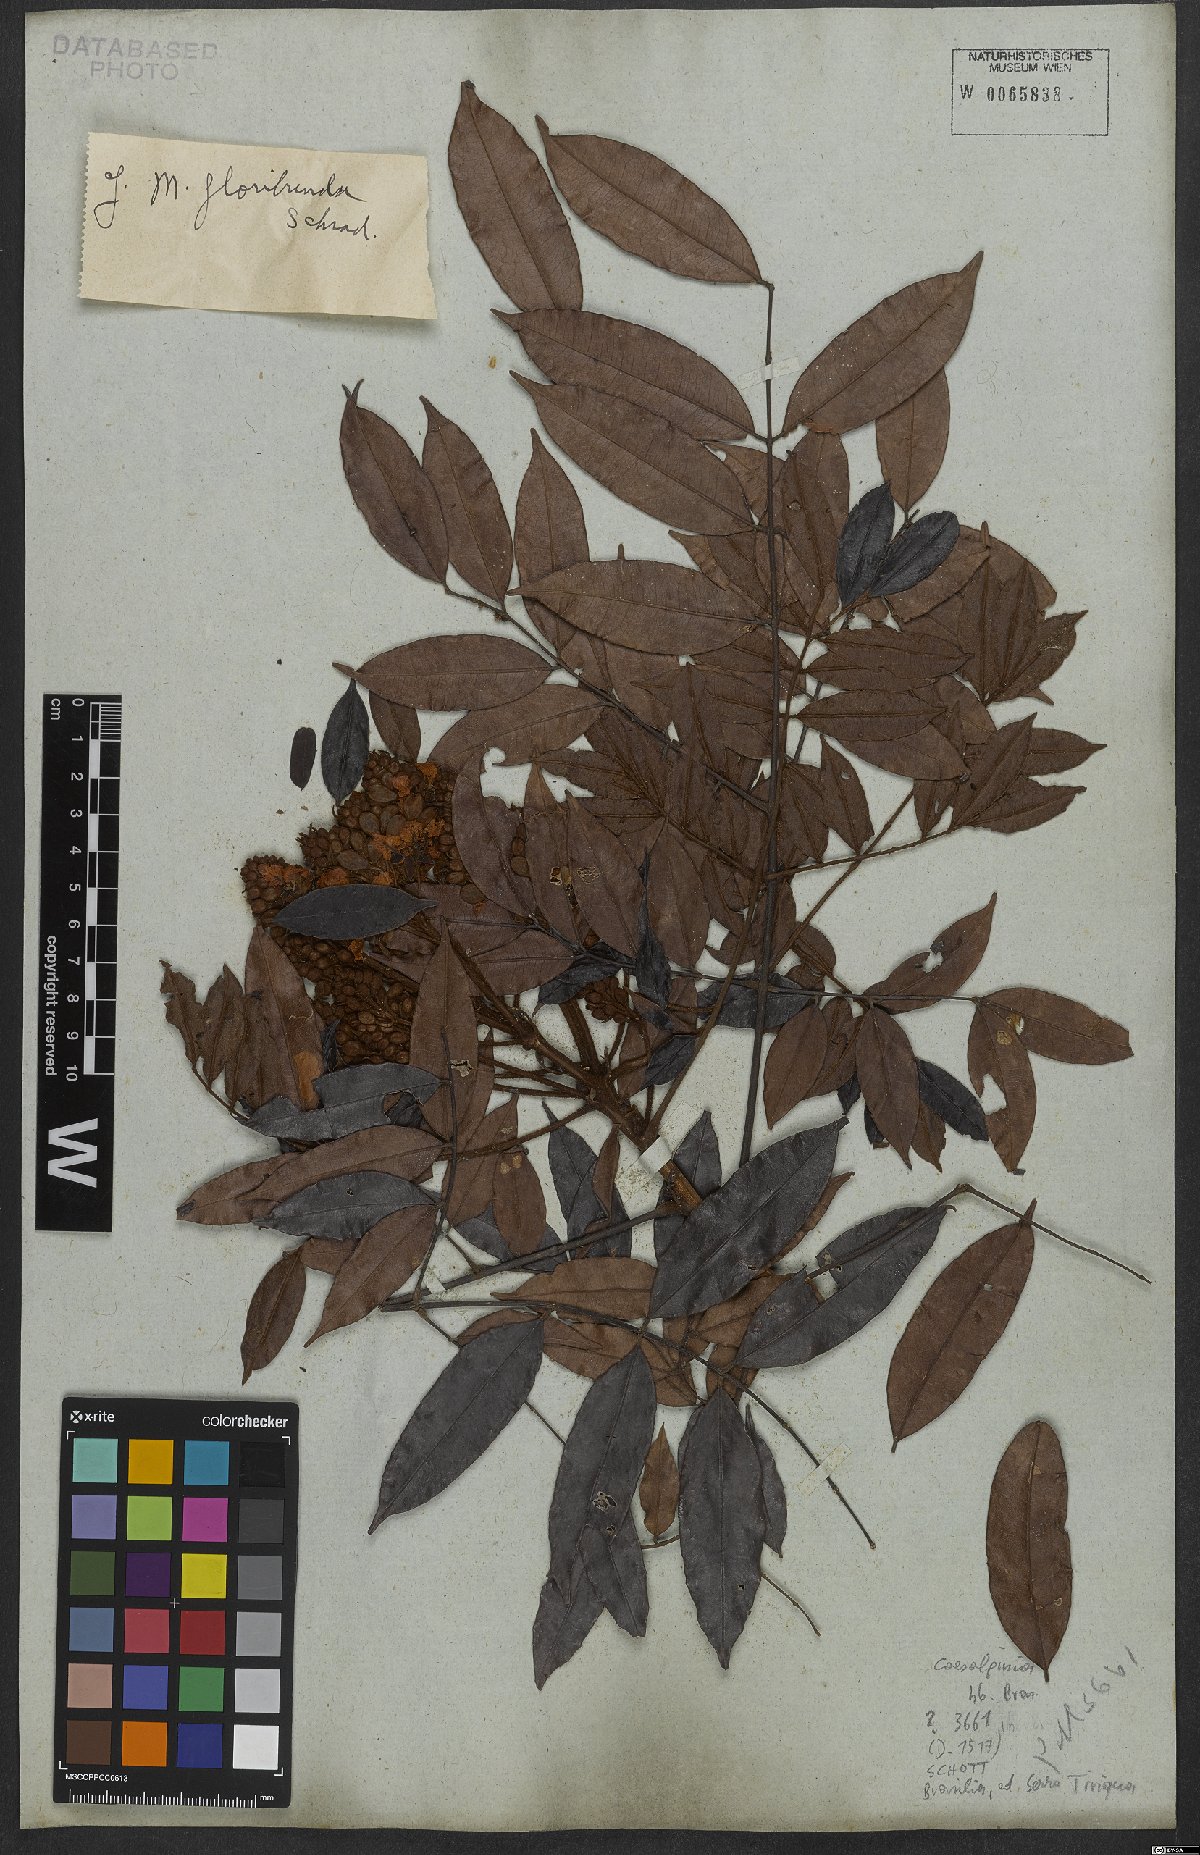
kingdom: Plantae
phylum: Tracheophyta
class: Magnoliopsida
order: Fabales
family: Fabaceae
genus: Caesalpinia
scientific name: Caesalpinia
